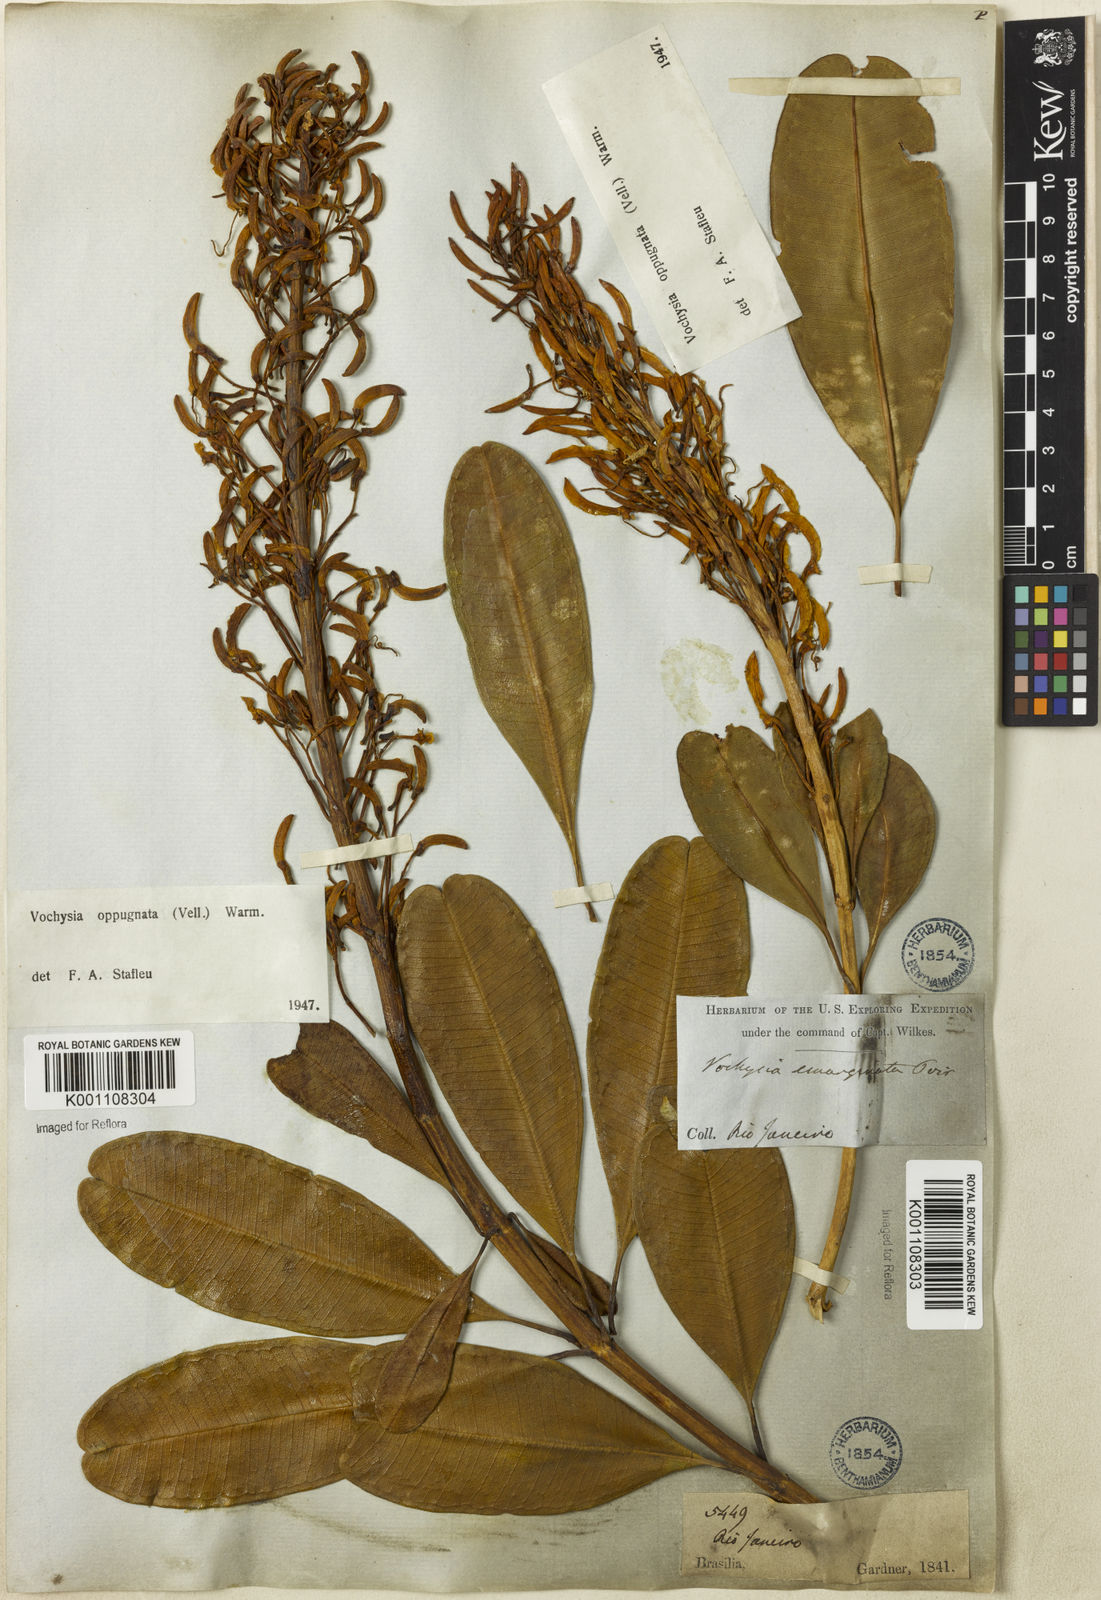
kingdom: Plantae
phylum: Tracheophyta
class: Magnoliopsida
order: Myrtales
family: Vochysiaceae
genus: Vochysia
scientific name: Vochysia oppugnata
